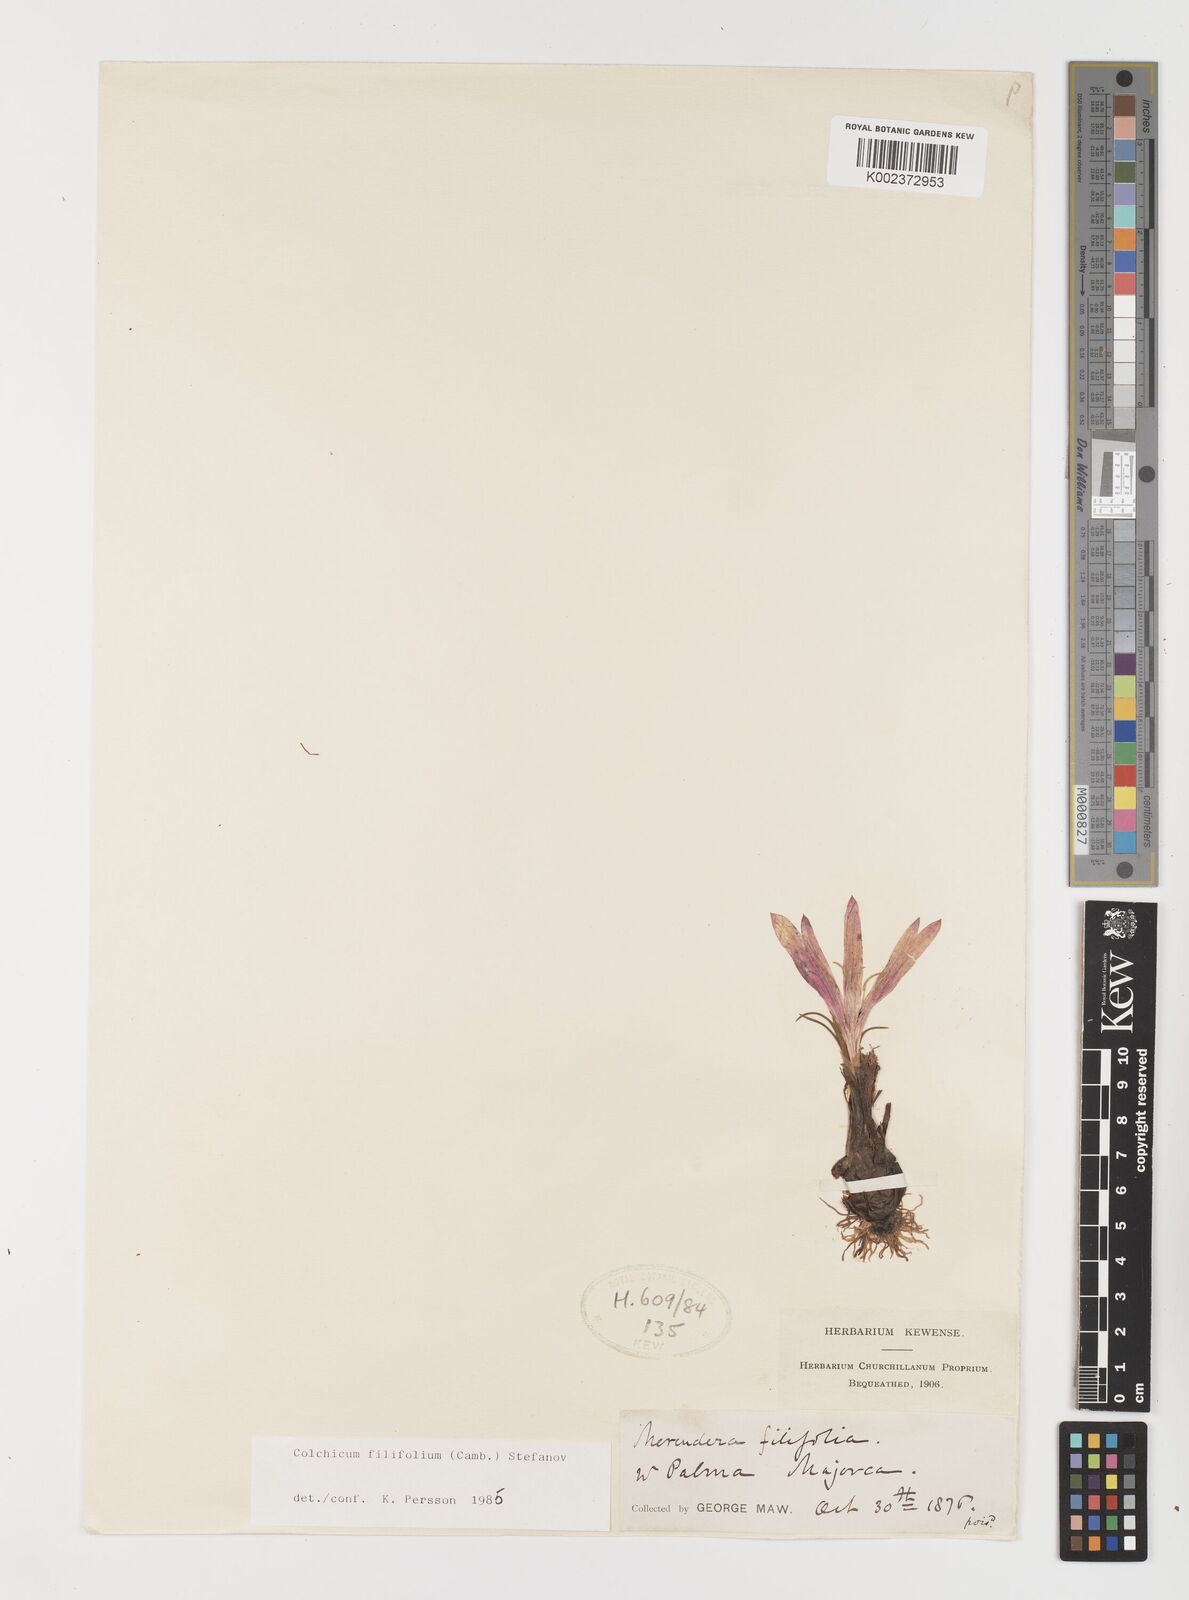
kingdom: Plantae
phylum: Tracheophyta
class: Liliopsida
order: Liliales
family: Colchicaceae
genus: Colchicum
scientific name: Colchicum filifolium
